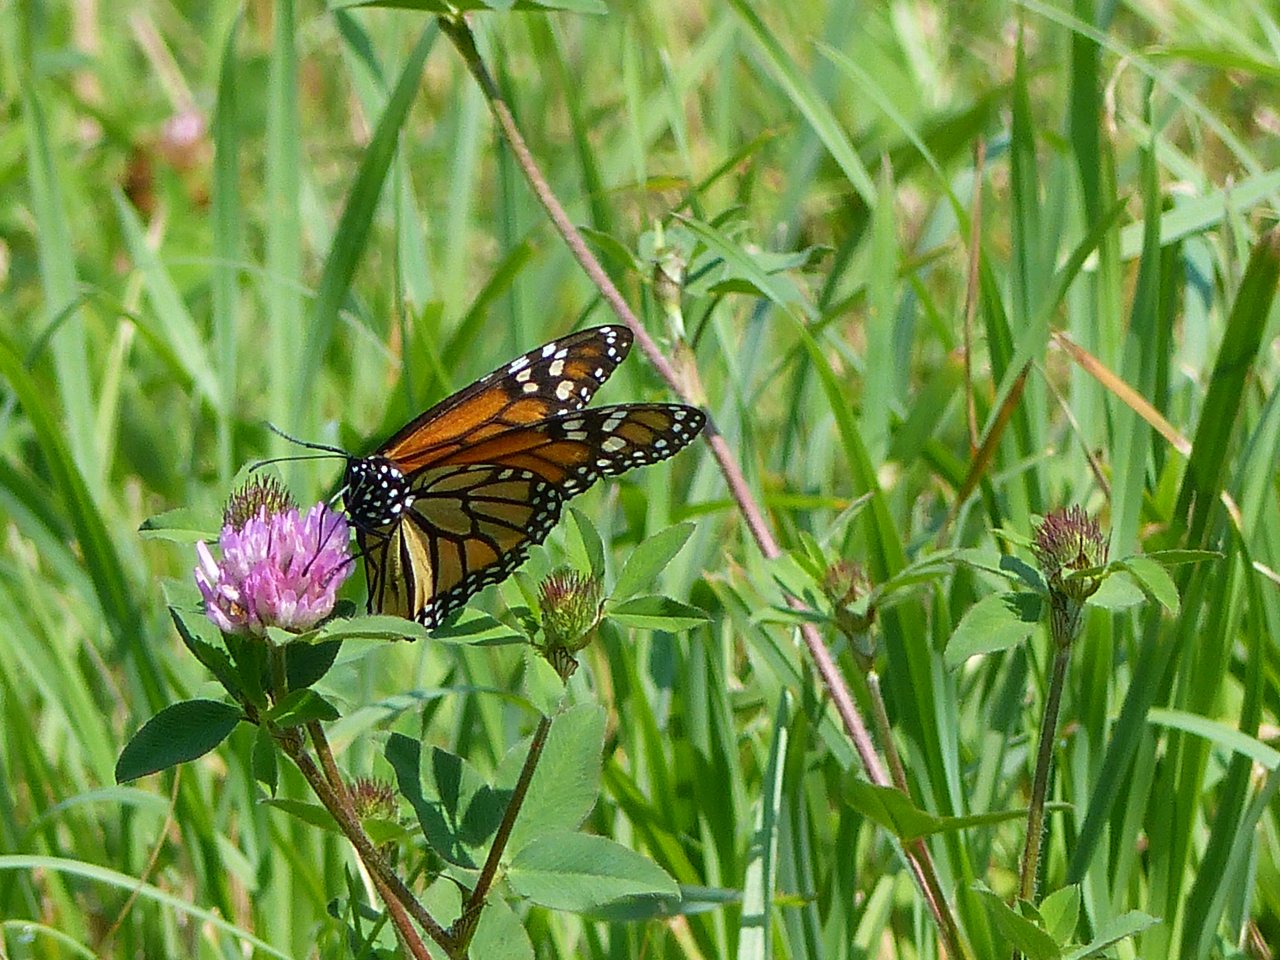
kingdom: Animalia
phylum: Arthropoda
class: Insecta
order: Lepidoptera
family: Nymphalidae
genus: Danaus
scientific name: Danaus plexippus
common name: Monarch
